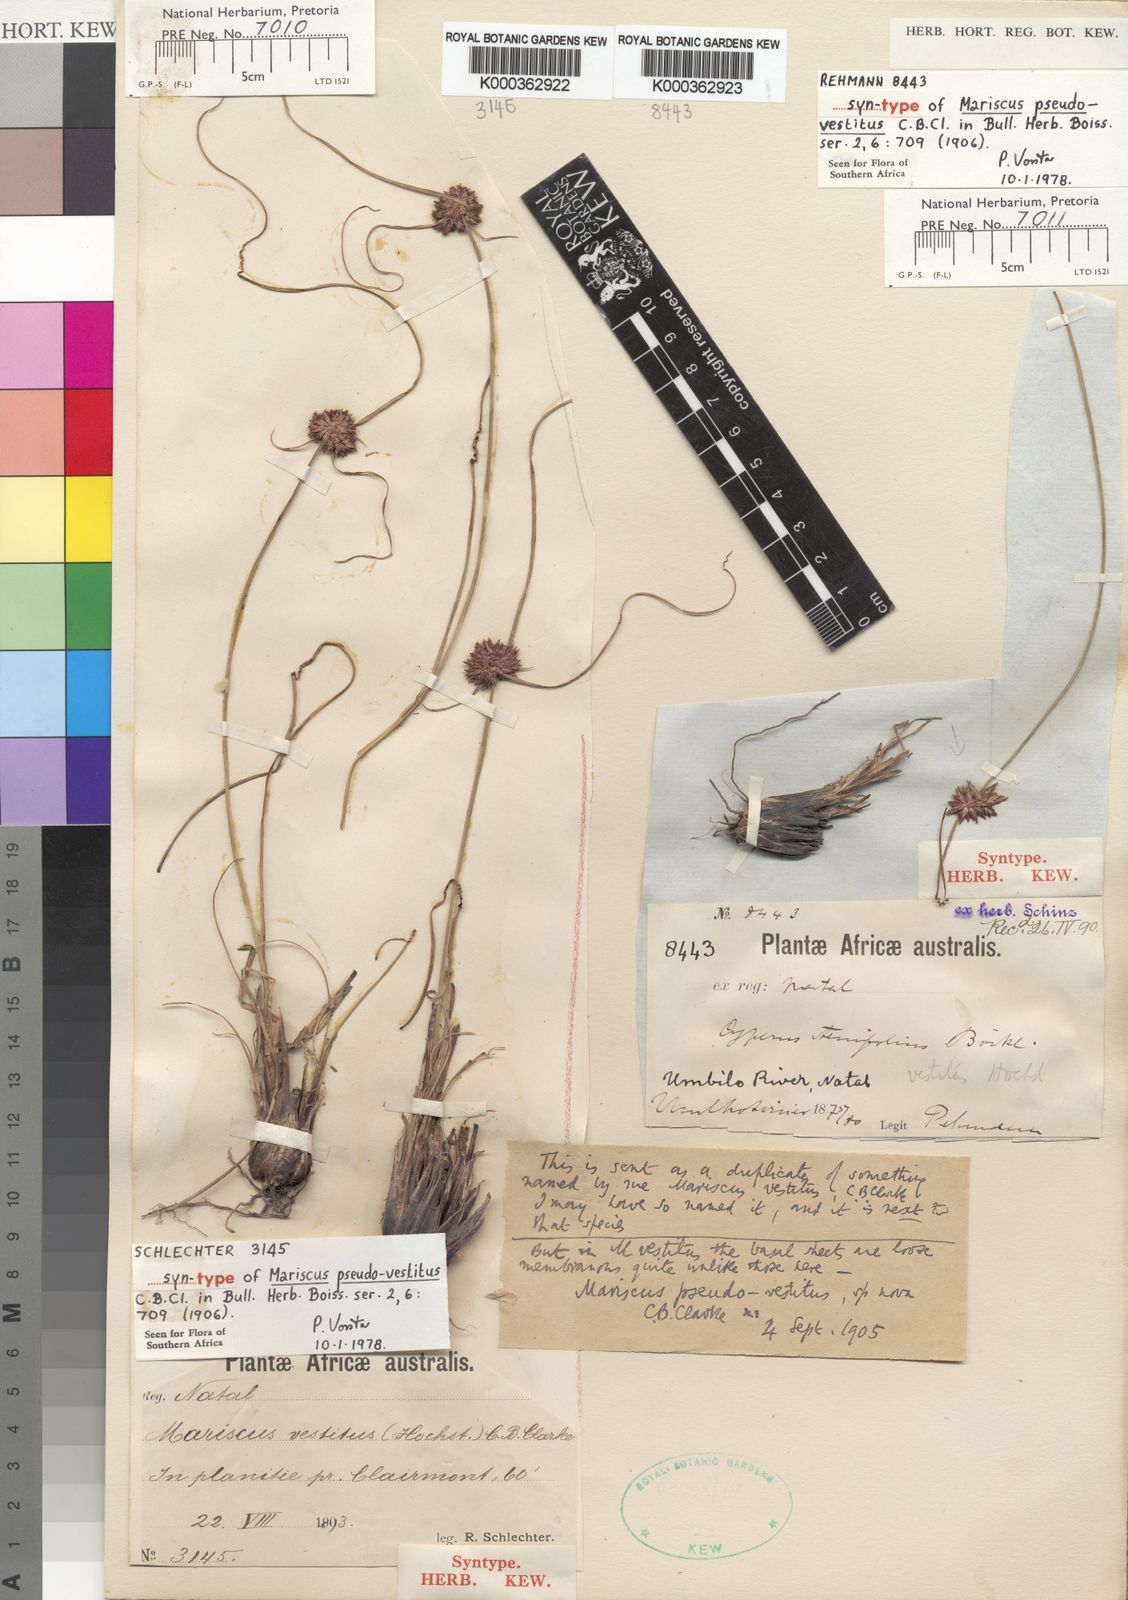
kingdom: Plantae
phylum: Tracheophyta
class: Liliopsida
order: Poales
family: Cyperaceae
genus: Cyperus
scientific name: Cyperus
